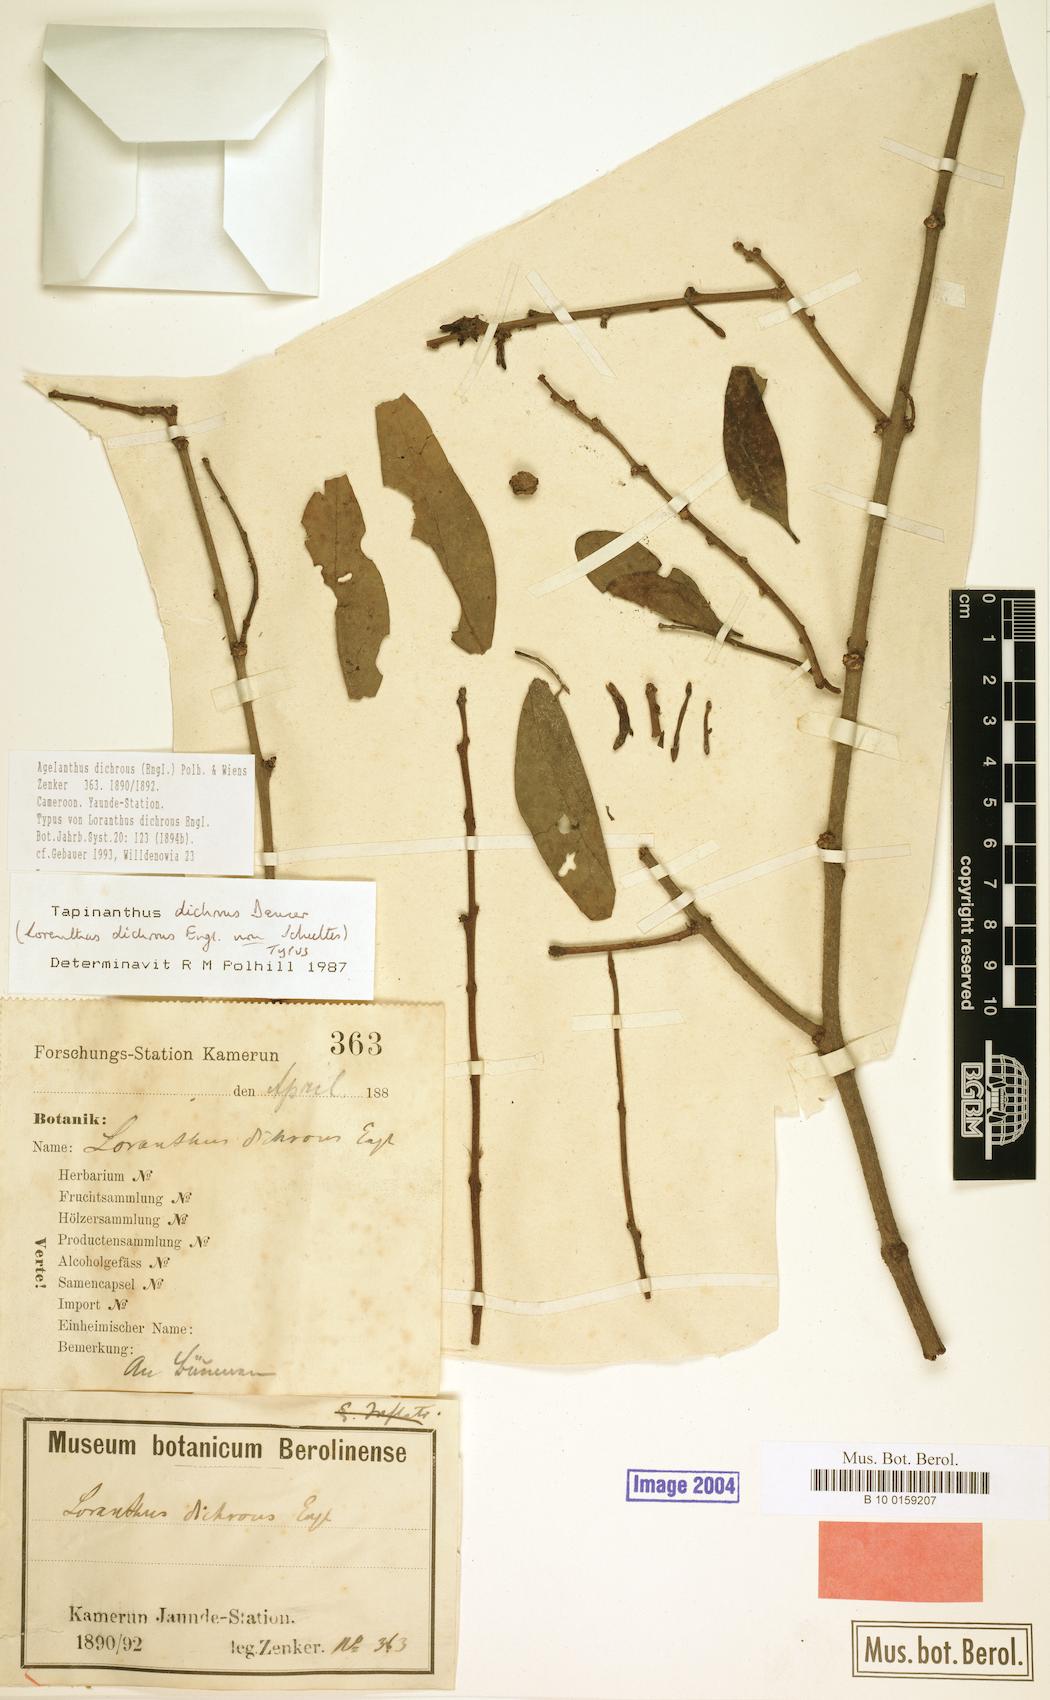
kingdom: Plantae
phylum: Tracheophyta
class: Magnoliopsida
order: Santalales
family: Loranthaceae
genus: Agelanthus
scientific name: Agelanthus dichrous
